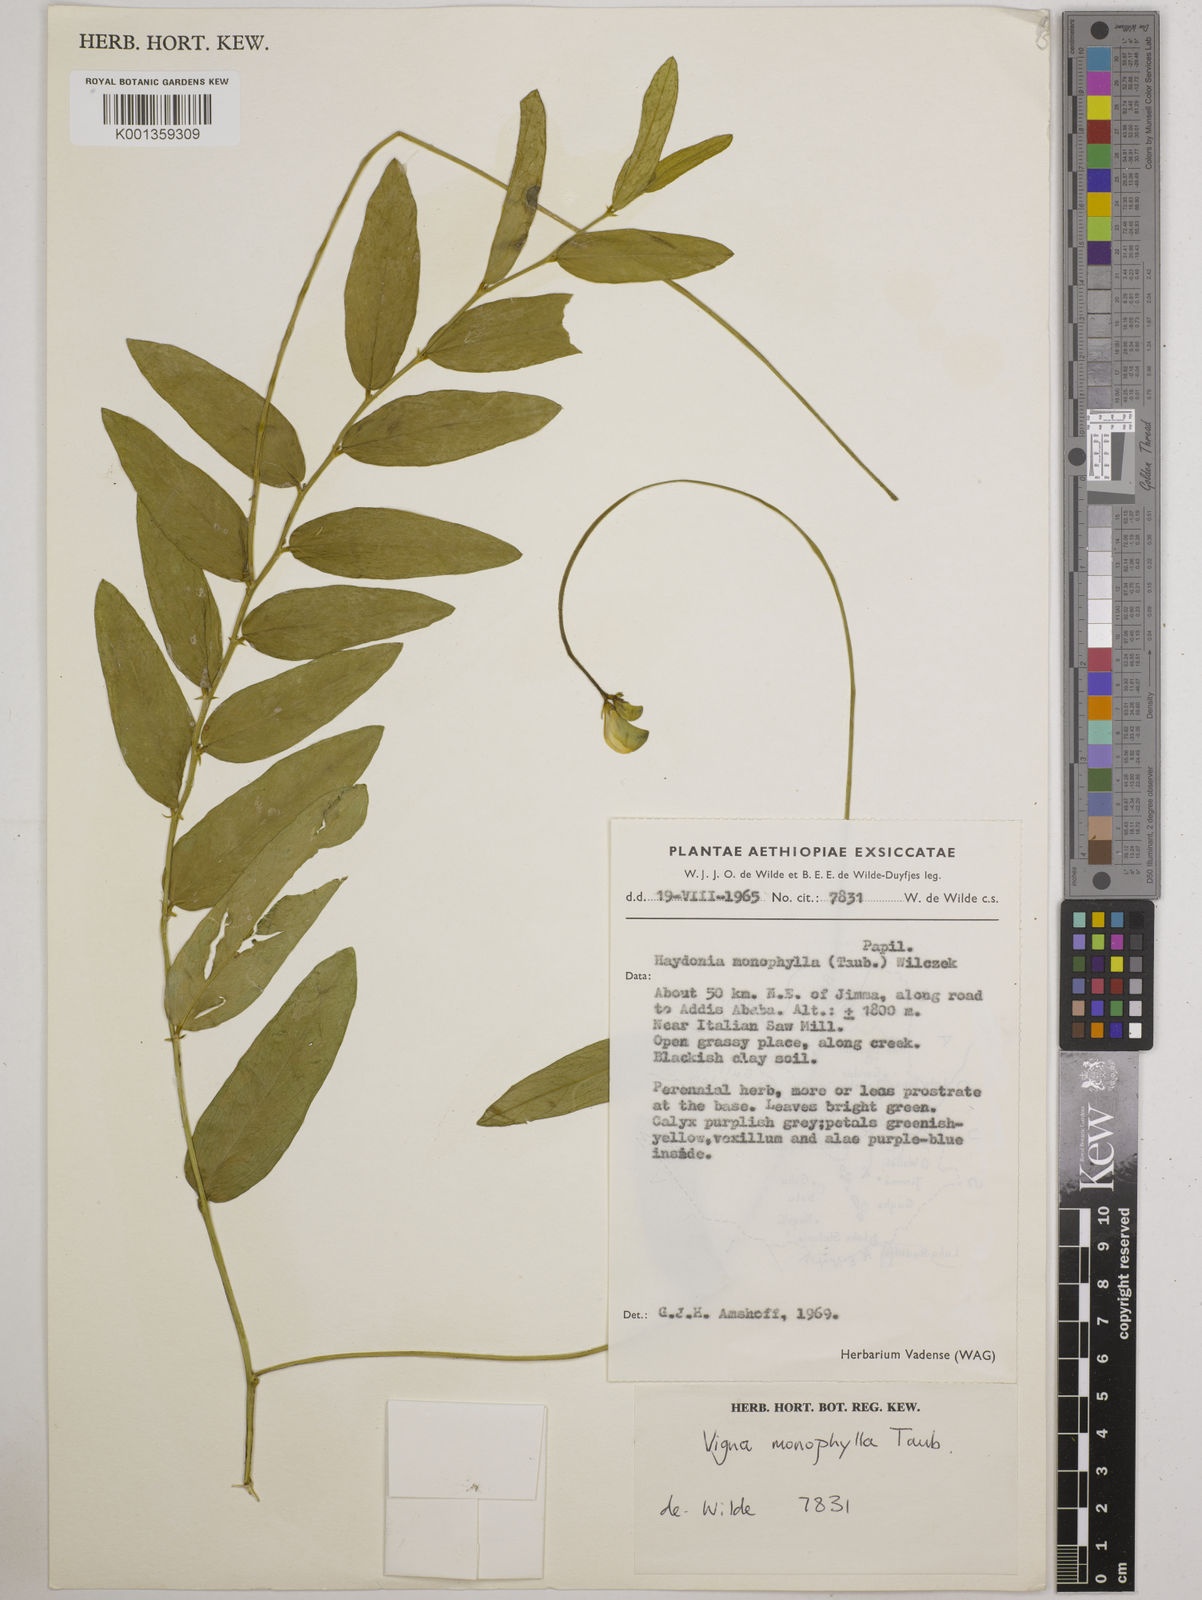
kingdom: Plantae
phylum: Tracheophyta
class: Magnoliopsida
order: Fabales
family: Fabaceae
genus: Vigna
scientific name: Vigna monophylla
